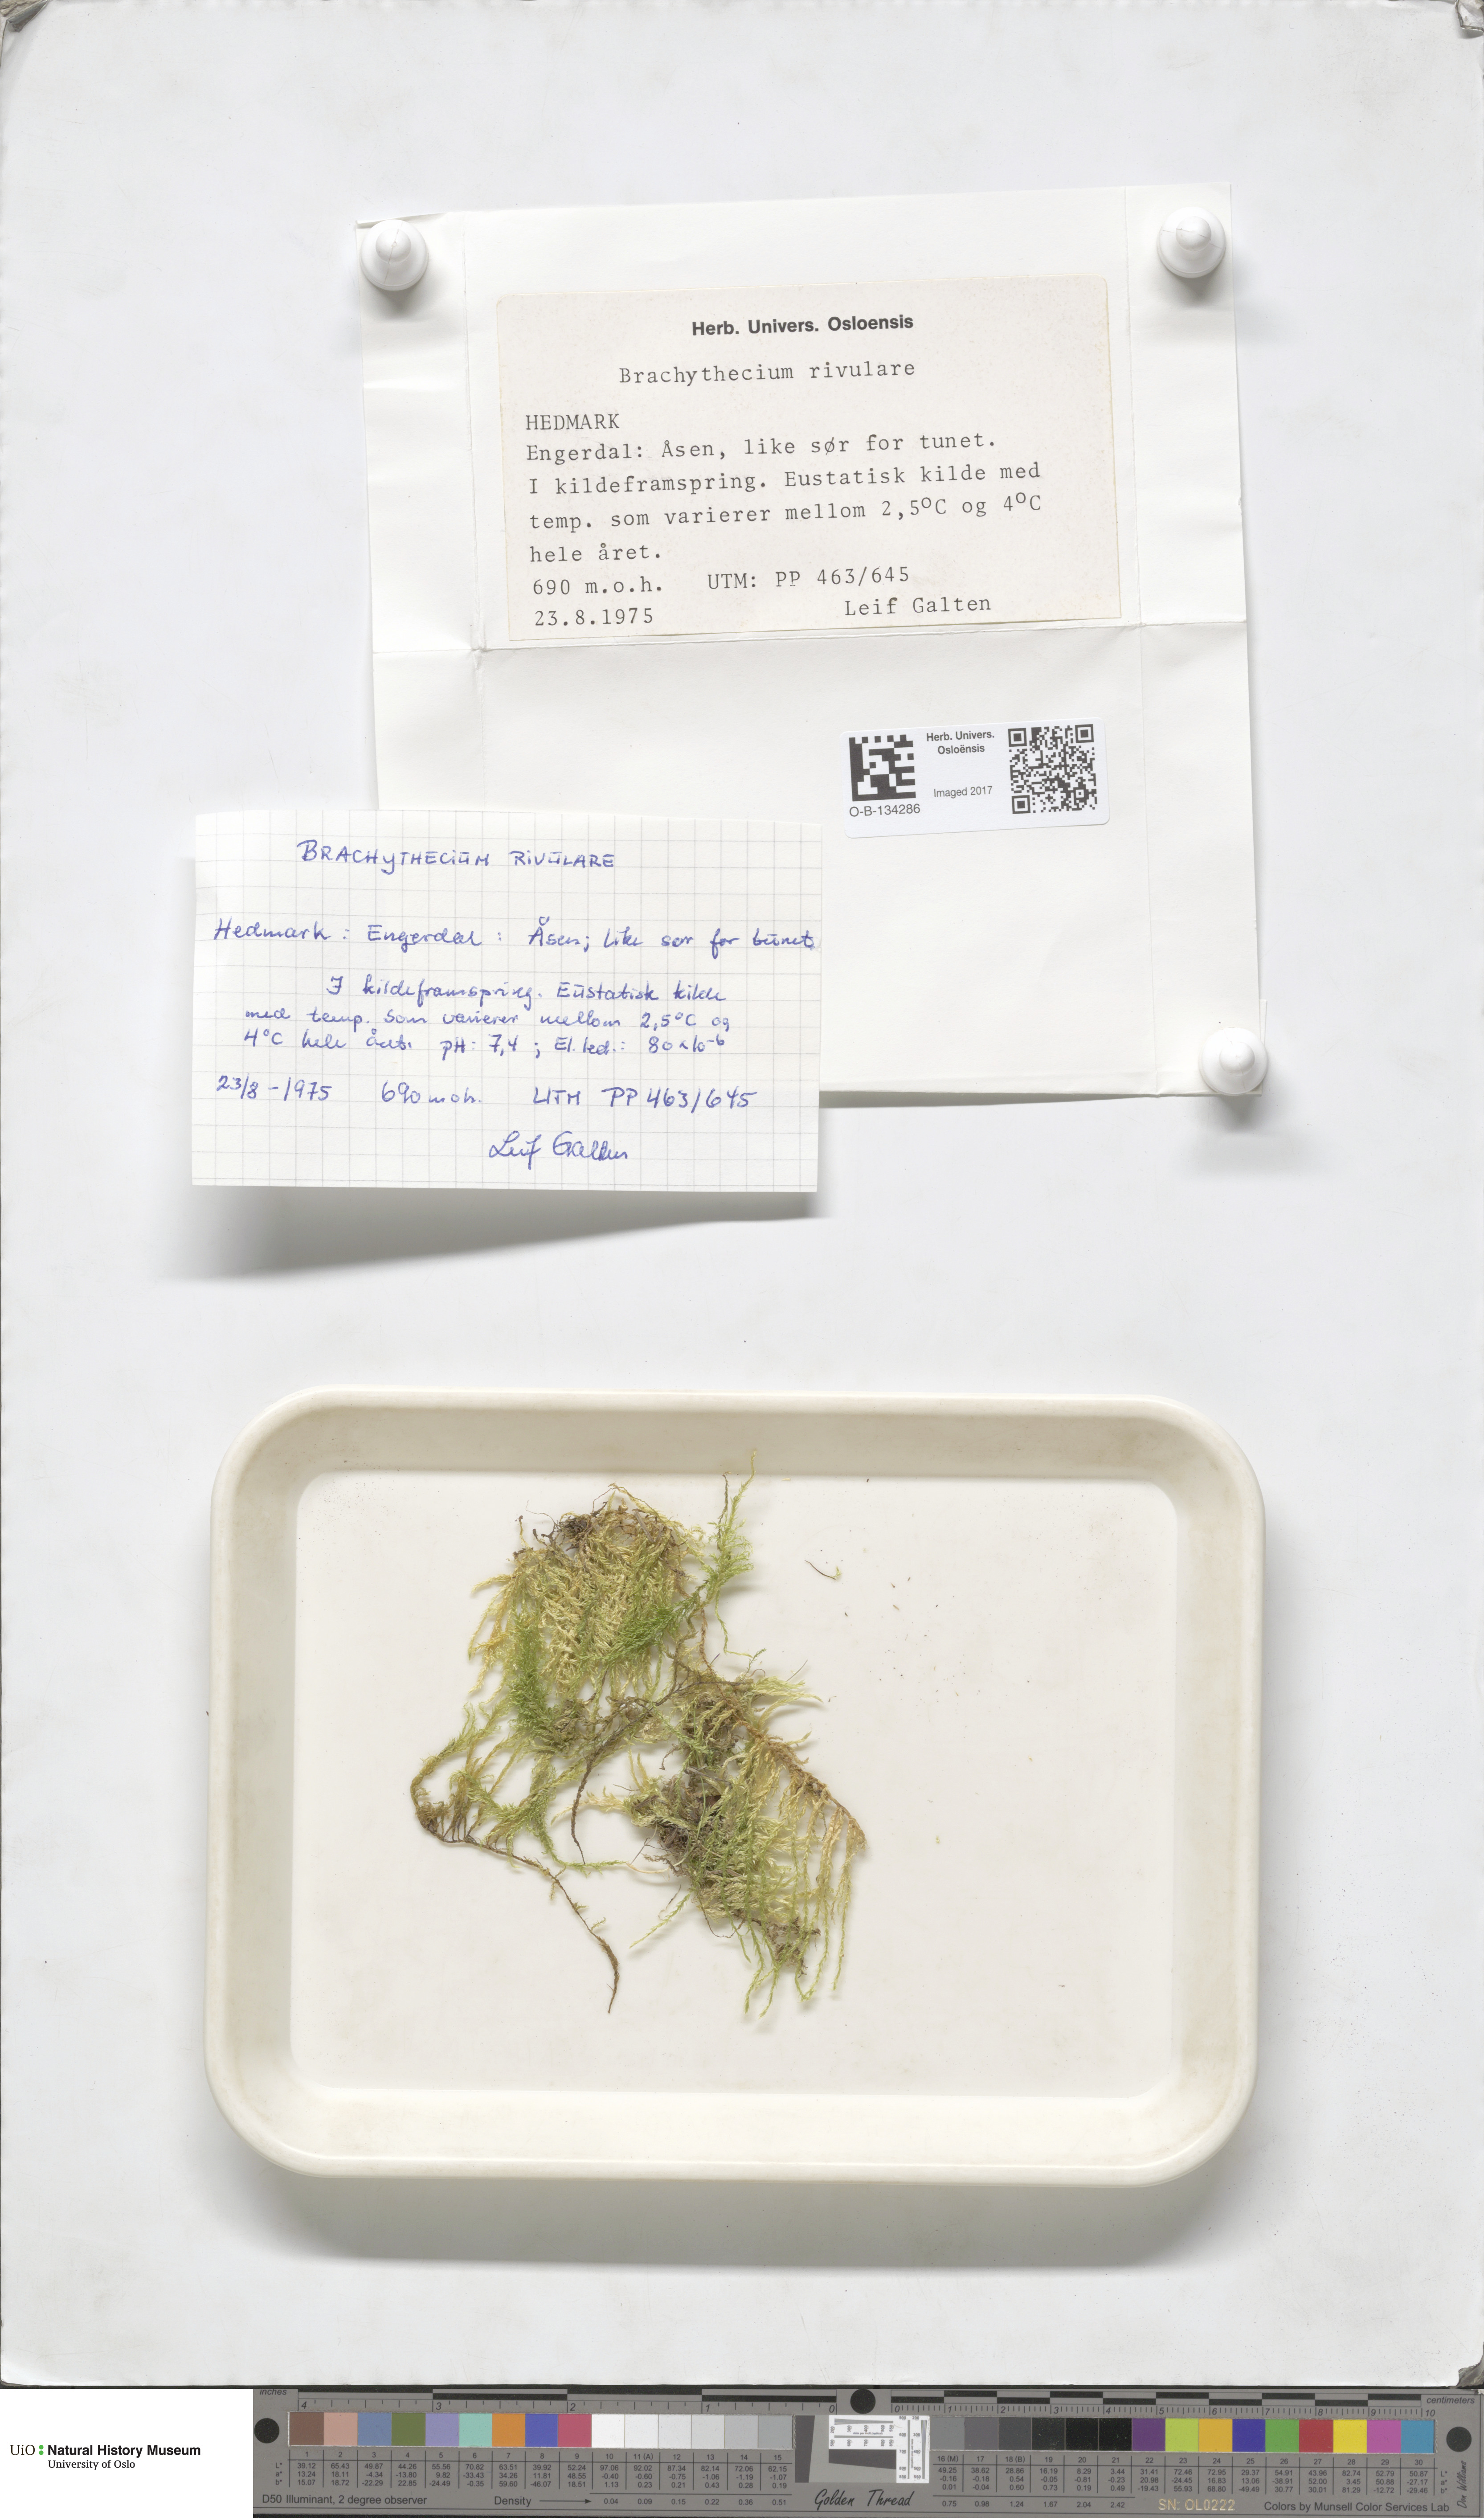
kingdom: Plantae
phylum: Bryophyta
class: Bryopsida
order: Hypnales
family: Brachytheciaceae
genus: Brachythecium
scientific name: Brachythecium rivulare
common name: River ragged moss
